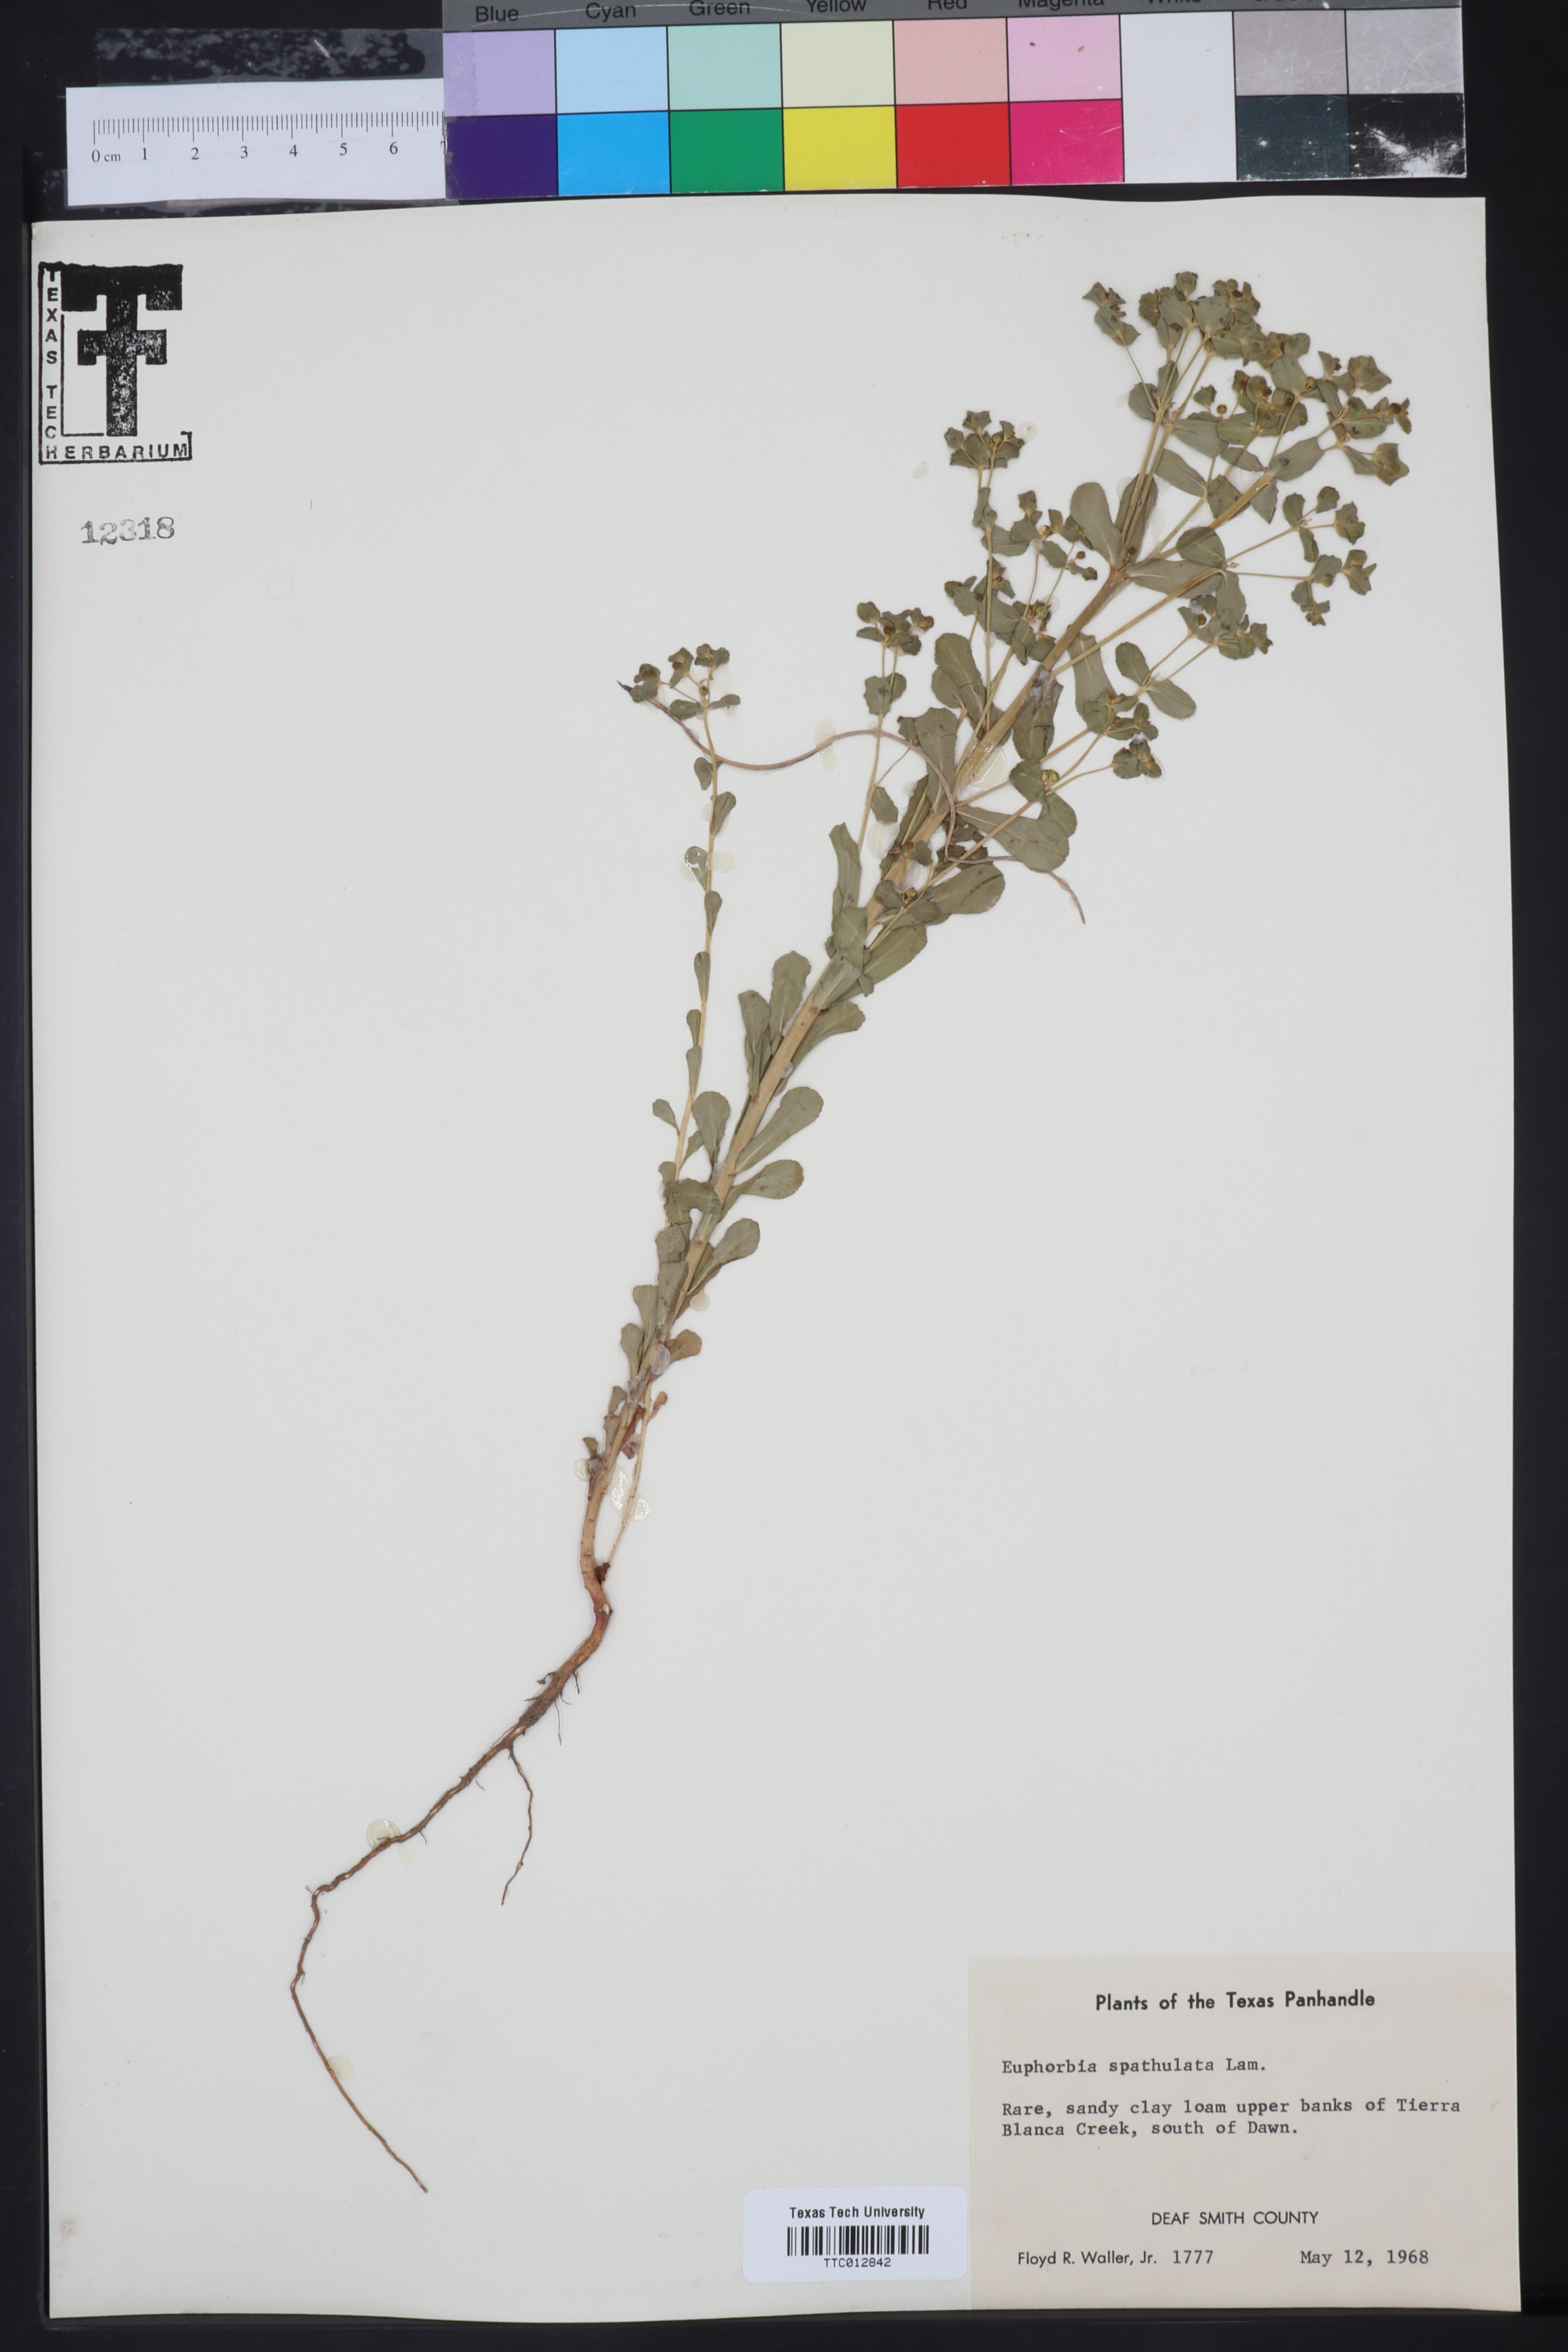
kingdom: Plantae
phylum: Tracheophyta
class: Magnoliopsida
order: Malpighiales
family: Euphorbiaceae
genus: Euphorbia
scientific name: Euphorbia spathulata
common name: Blunt spurge
